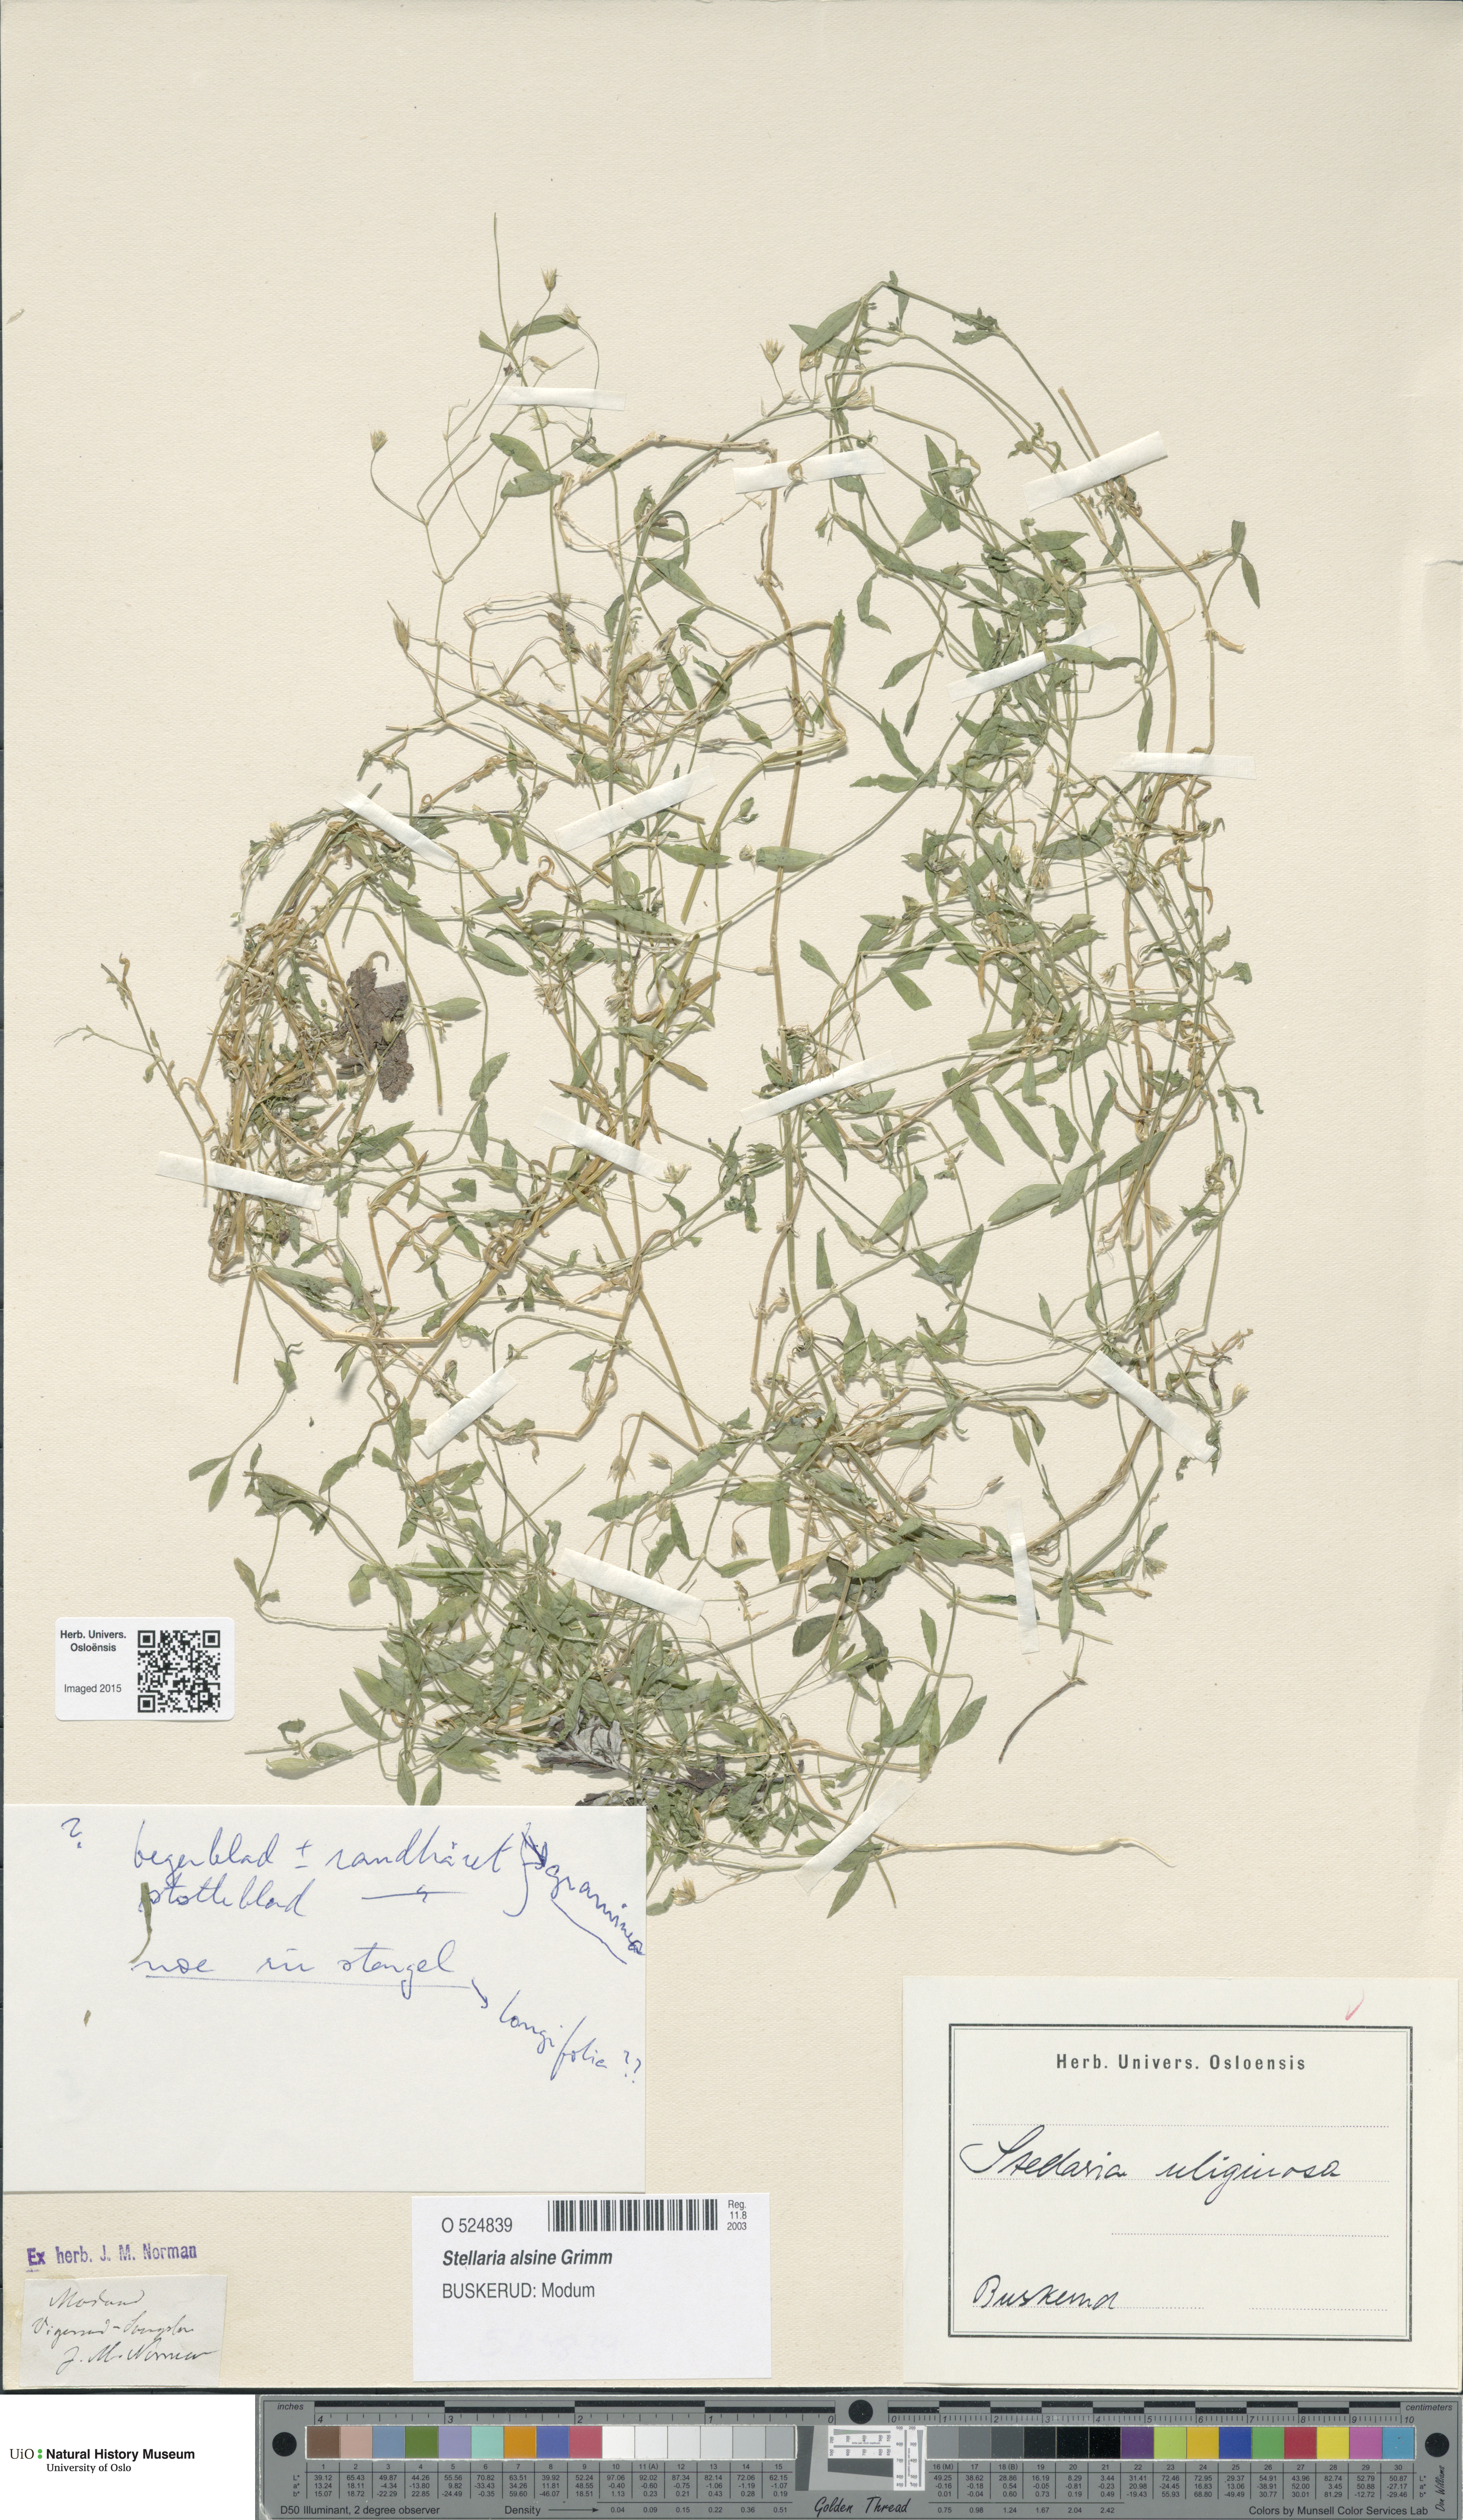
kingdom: Plantae
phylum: Tracheophyta
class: Magnoliopsida
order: Caryophyllales
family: Caryophyllaceae
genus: Stellaria
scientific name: Stellaria alsine
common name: Bog stitchwort
